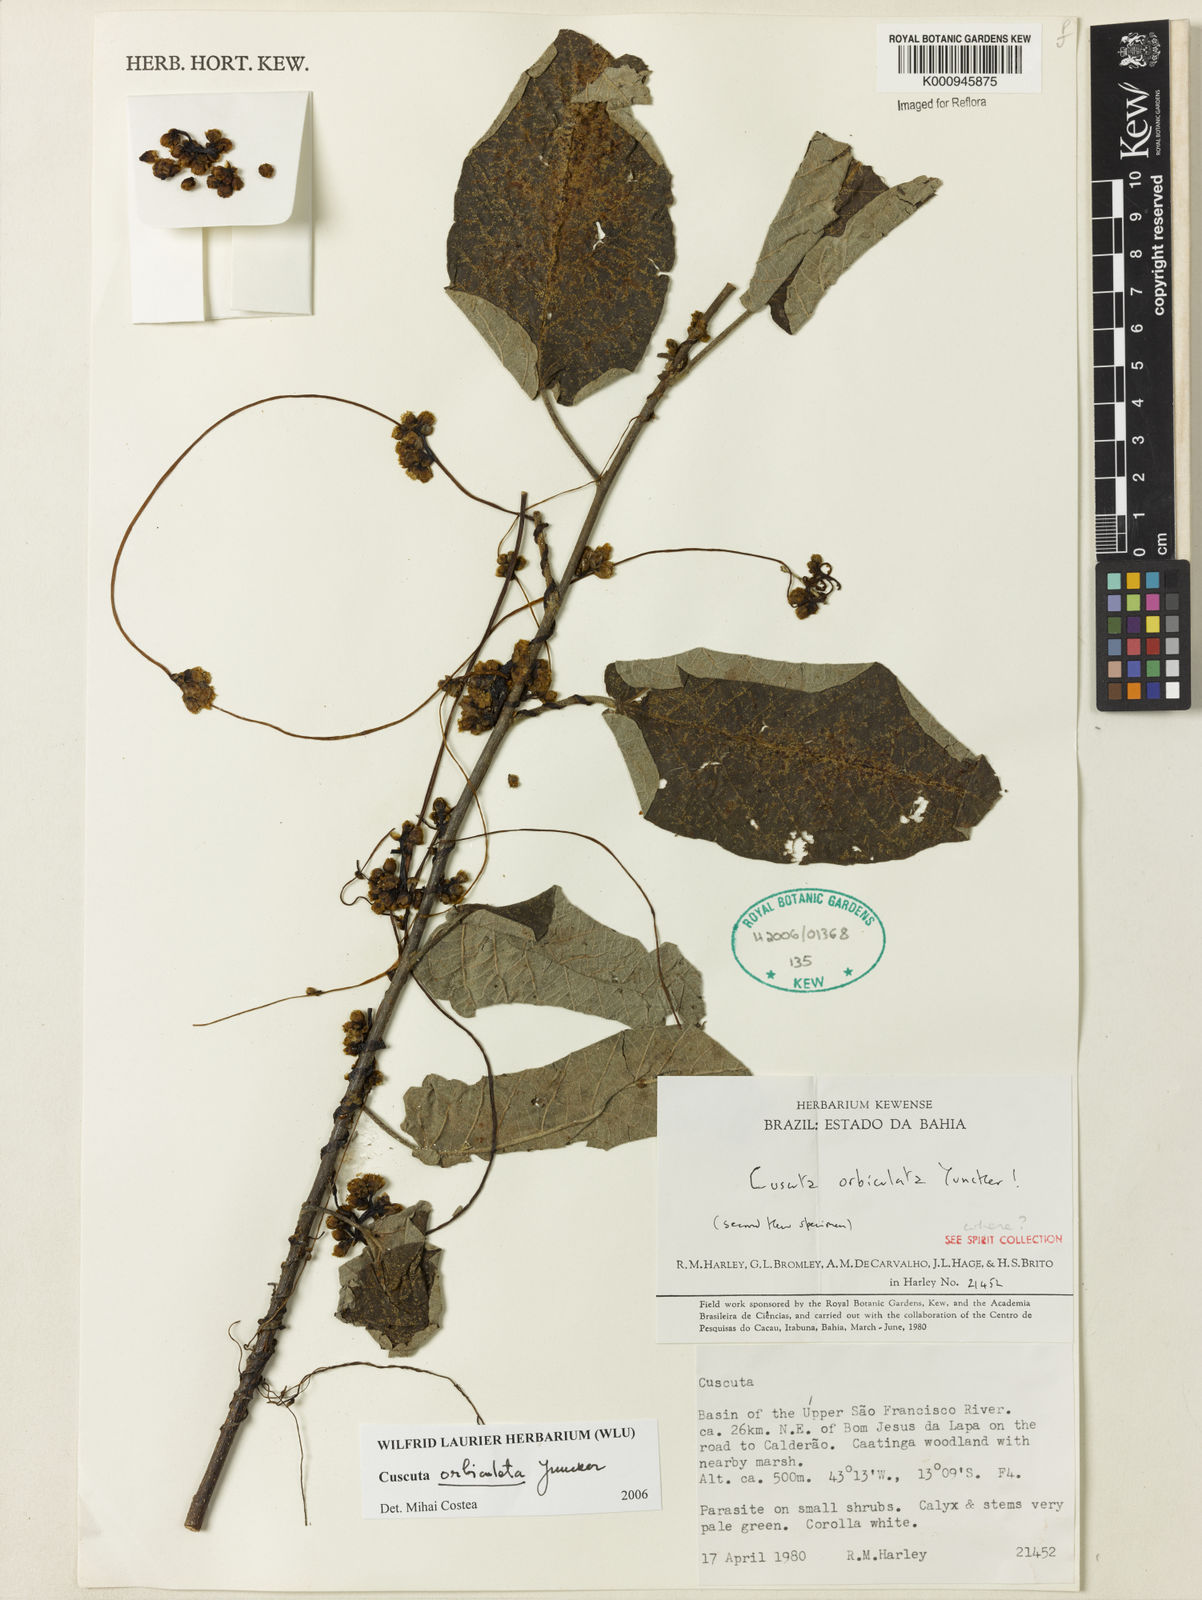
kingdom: Plantae
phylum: Tracheophyta
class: Magnoliopsida
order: Solanales
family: Convolvulaceae
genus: Cuscuta
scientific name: Cuscuta orbiculata
